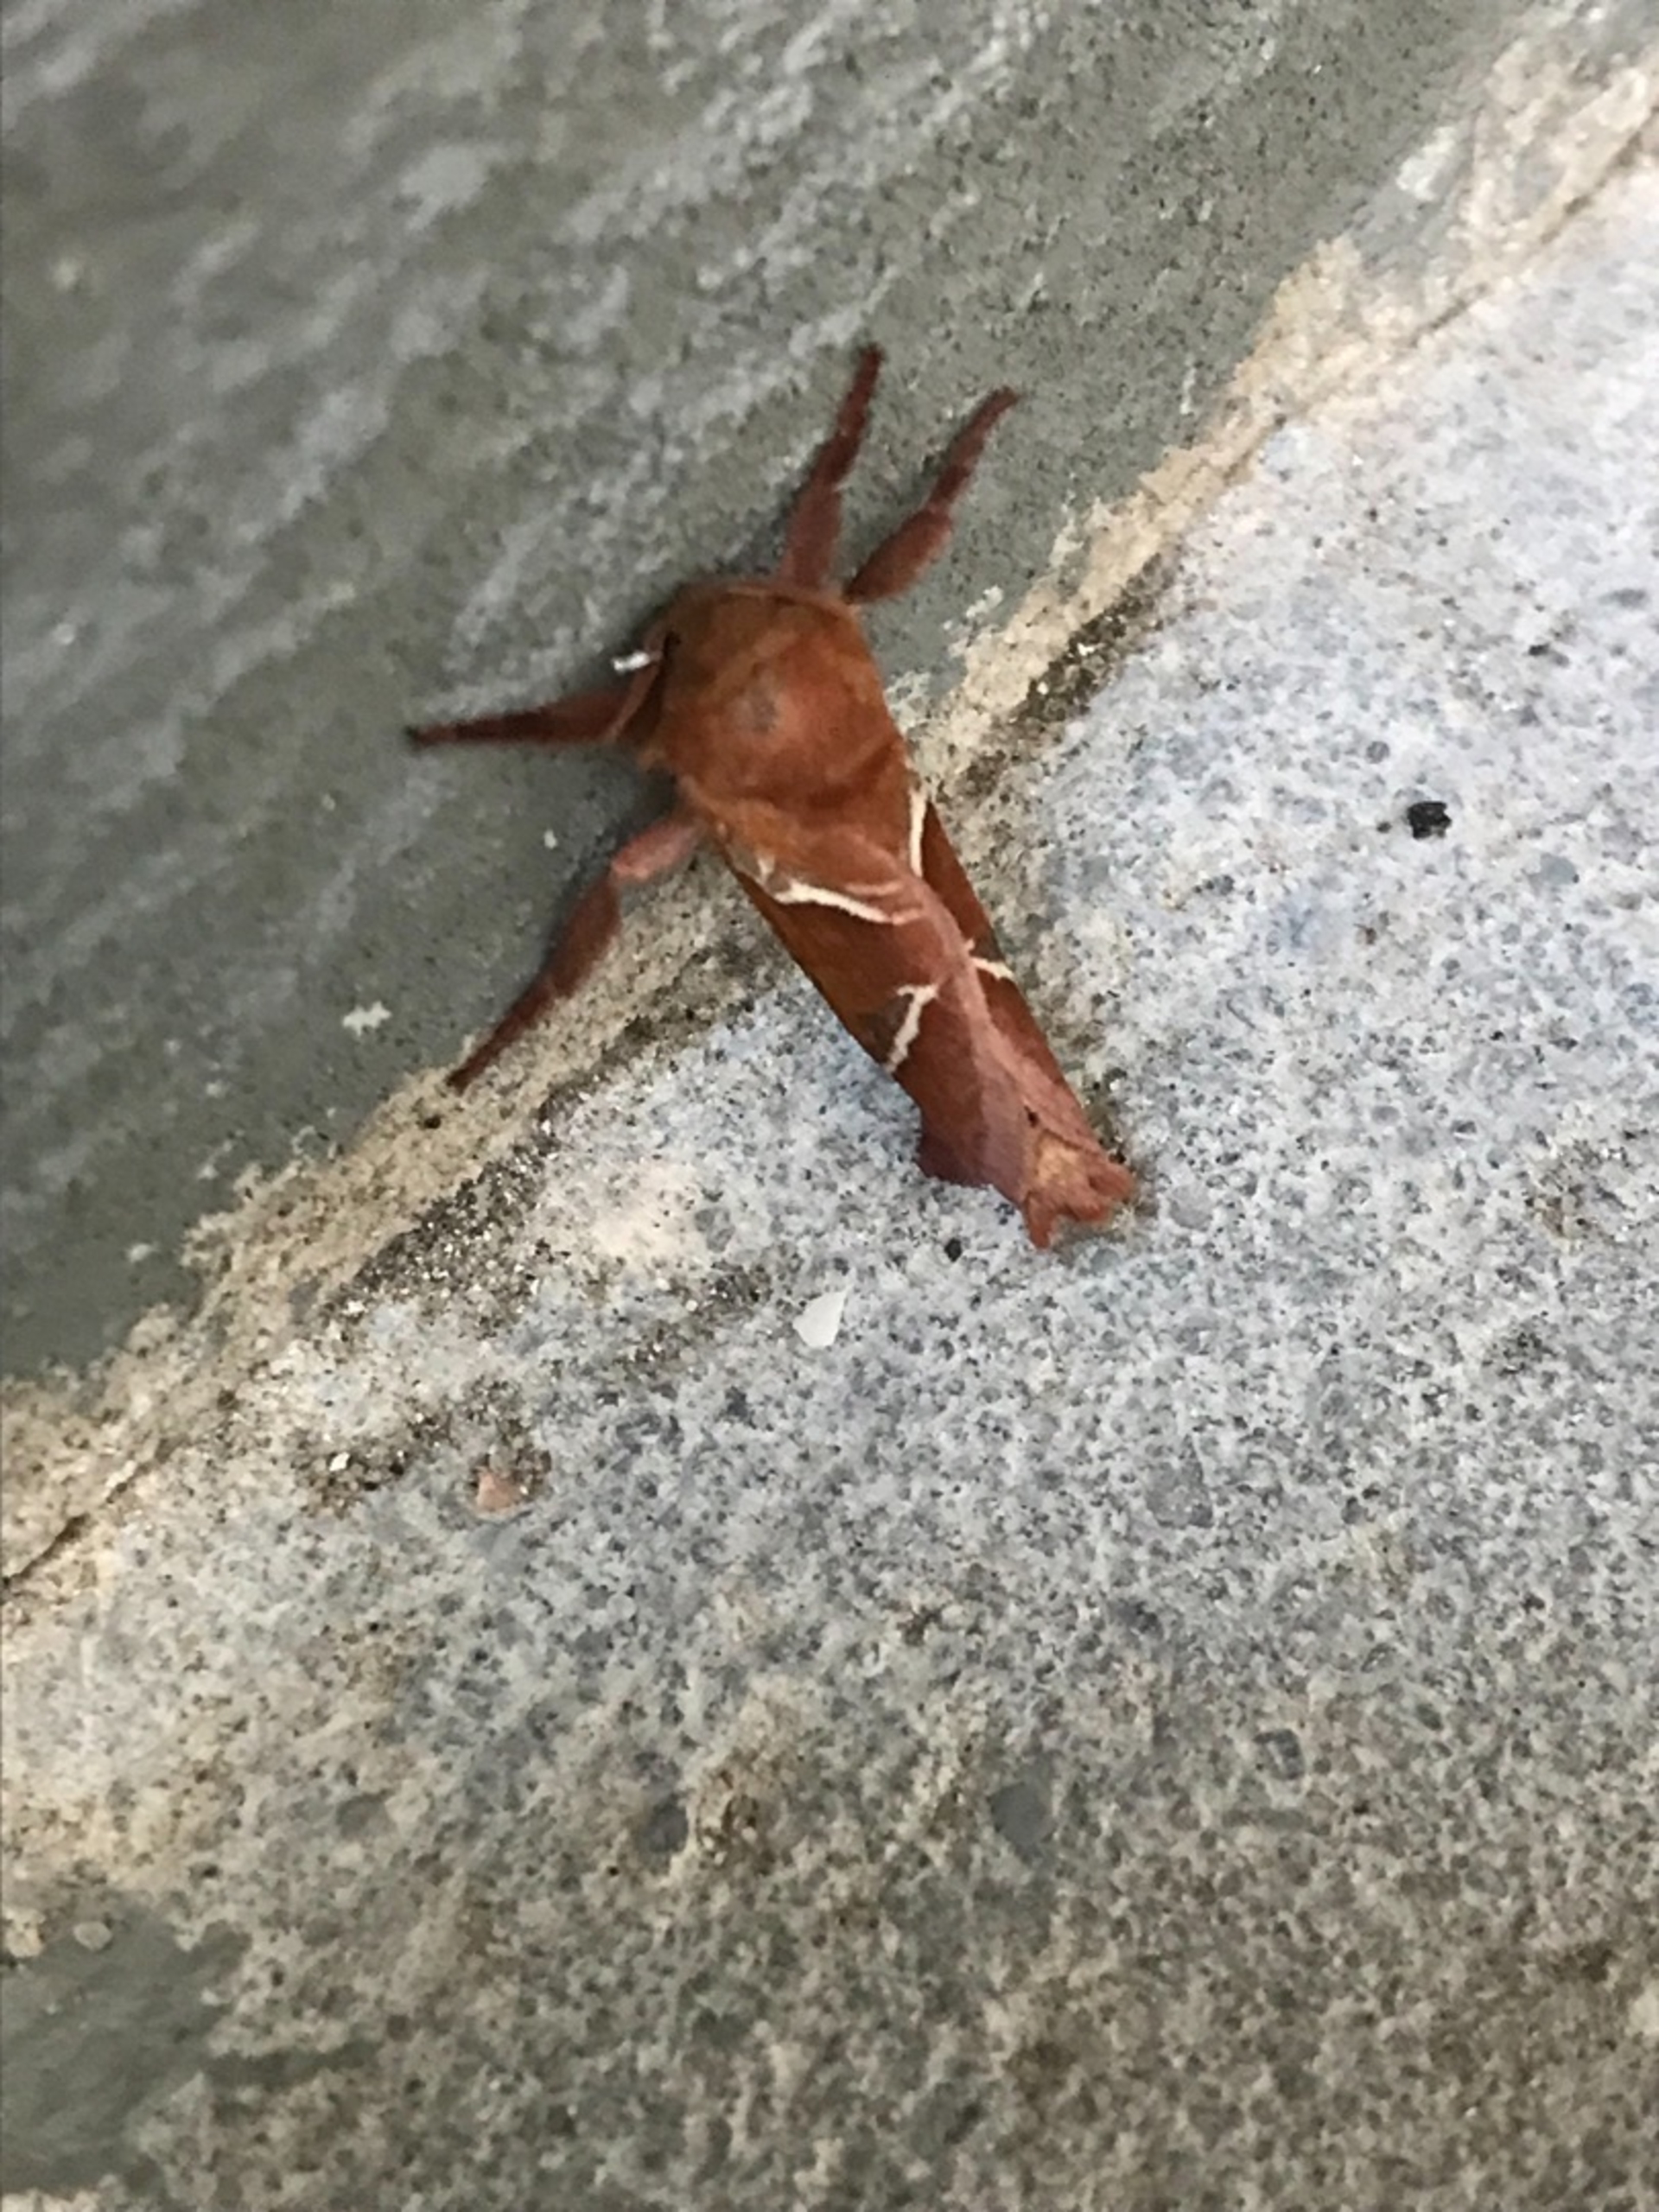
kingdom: Animalia
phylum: Arthropoda
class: Insecta
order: Lepidoptera
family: Hepialidae
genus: Triodia
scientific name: Triodia sylvina
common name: Skræpperodæder
